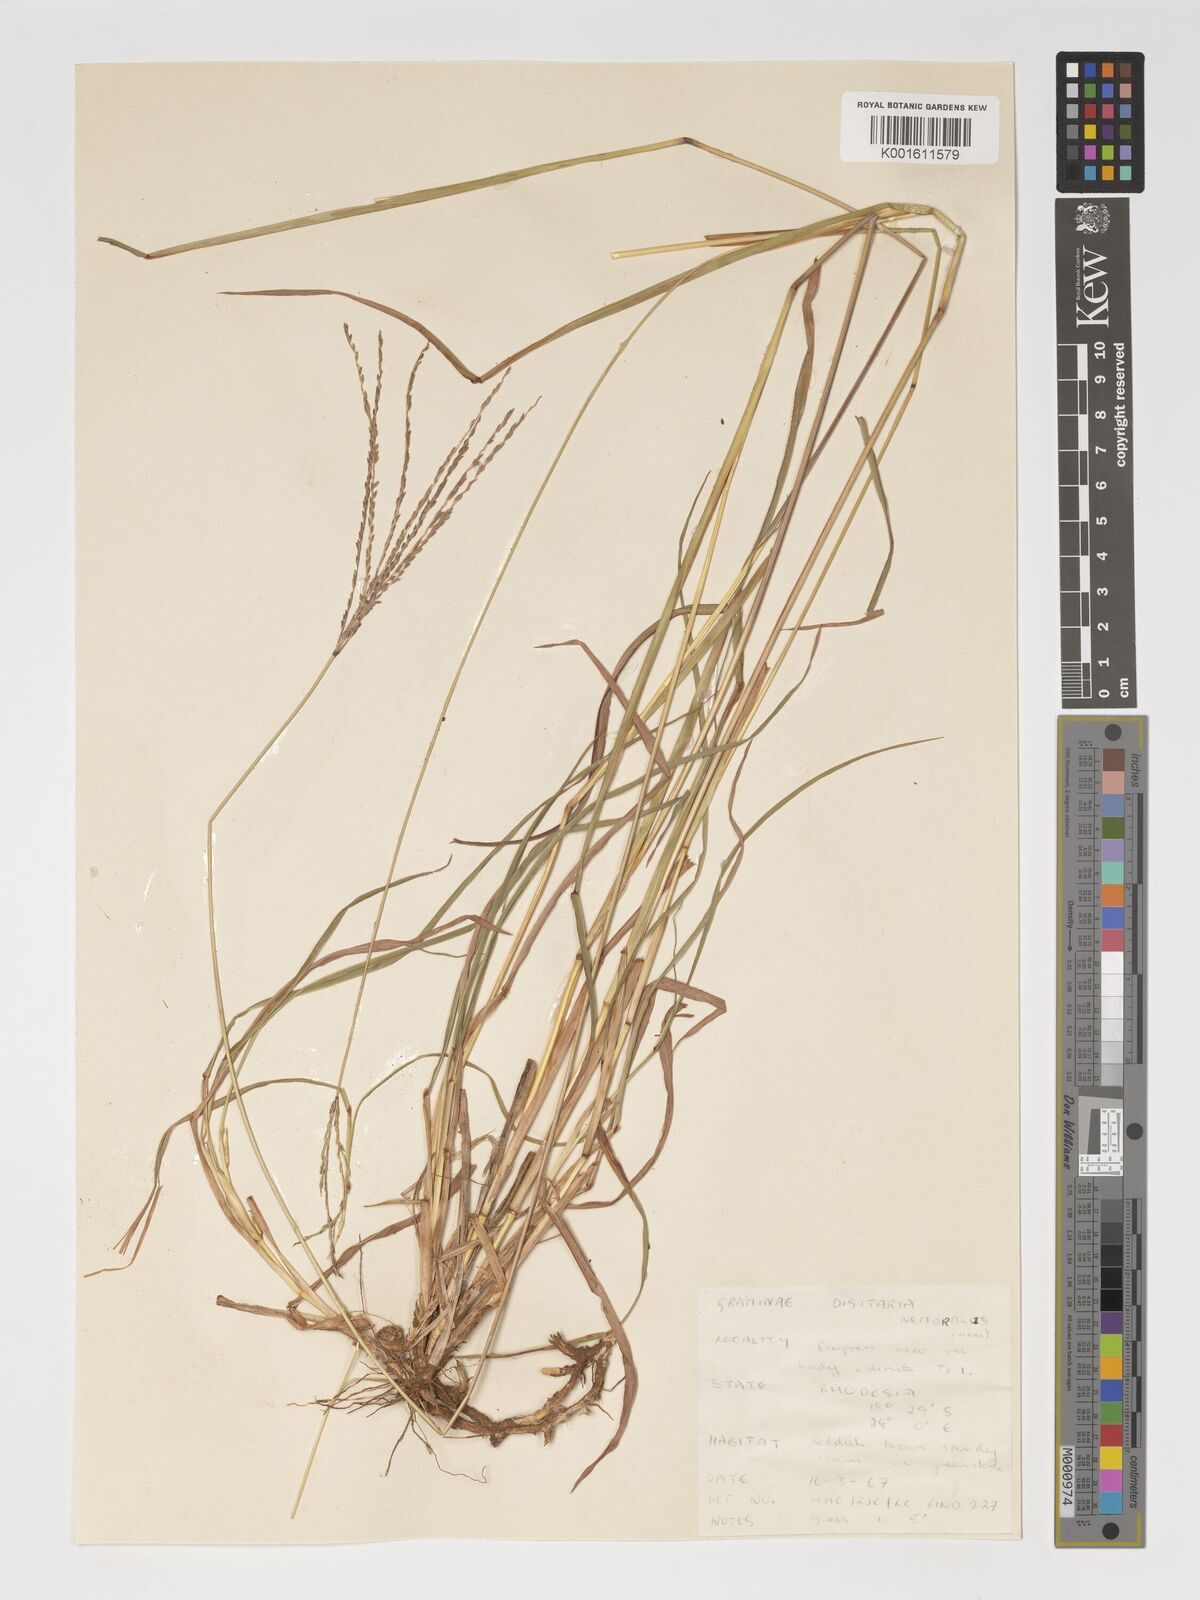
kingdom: Plantae
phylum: Tracheophyta
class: Liliopsida
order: Poales
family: Poaceae
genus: Digitaria
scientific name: Digitaria eriantha
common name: Digitgrass
